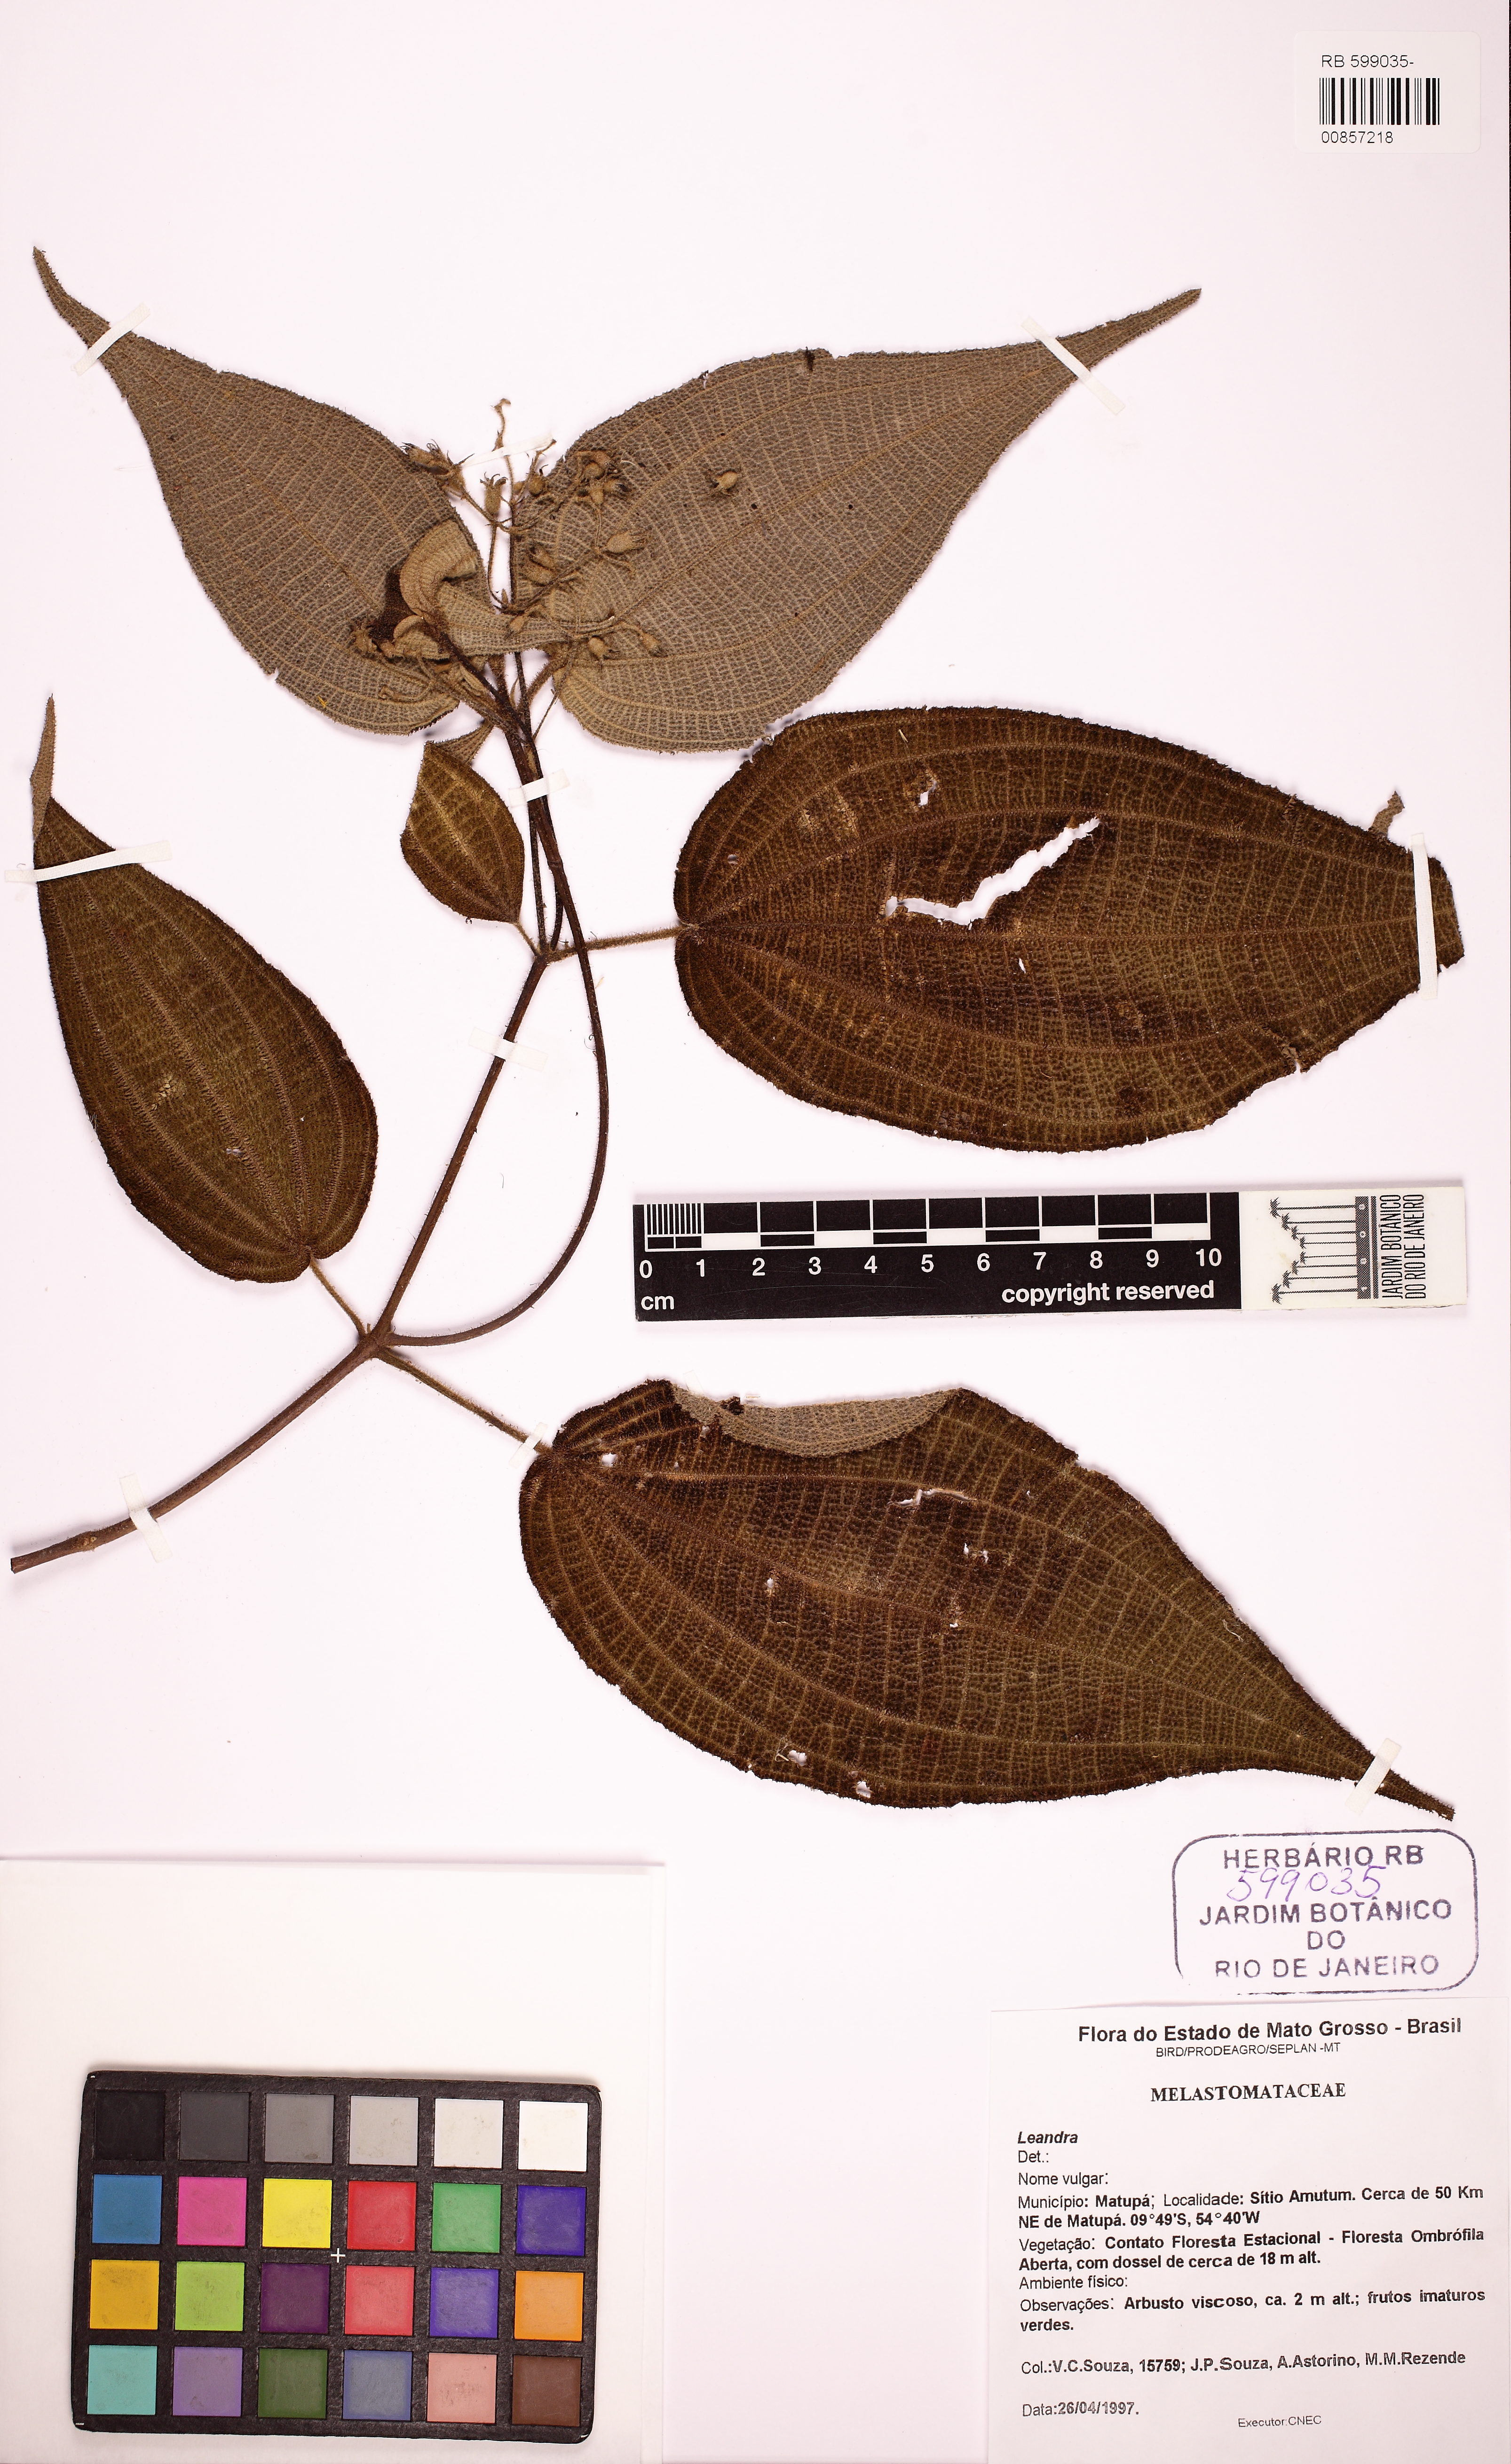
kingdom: Plantae
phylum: Tracheophyta
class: Magnoliopsida
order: Myrtales
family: Melastomataceae
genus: Miconia
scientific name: Miconia bullatifolia
